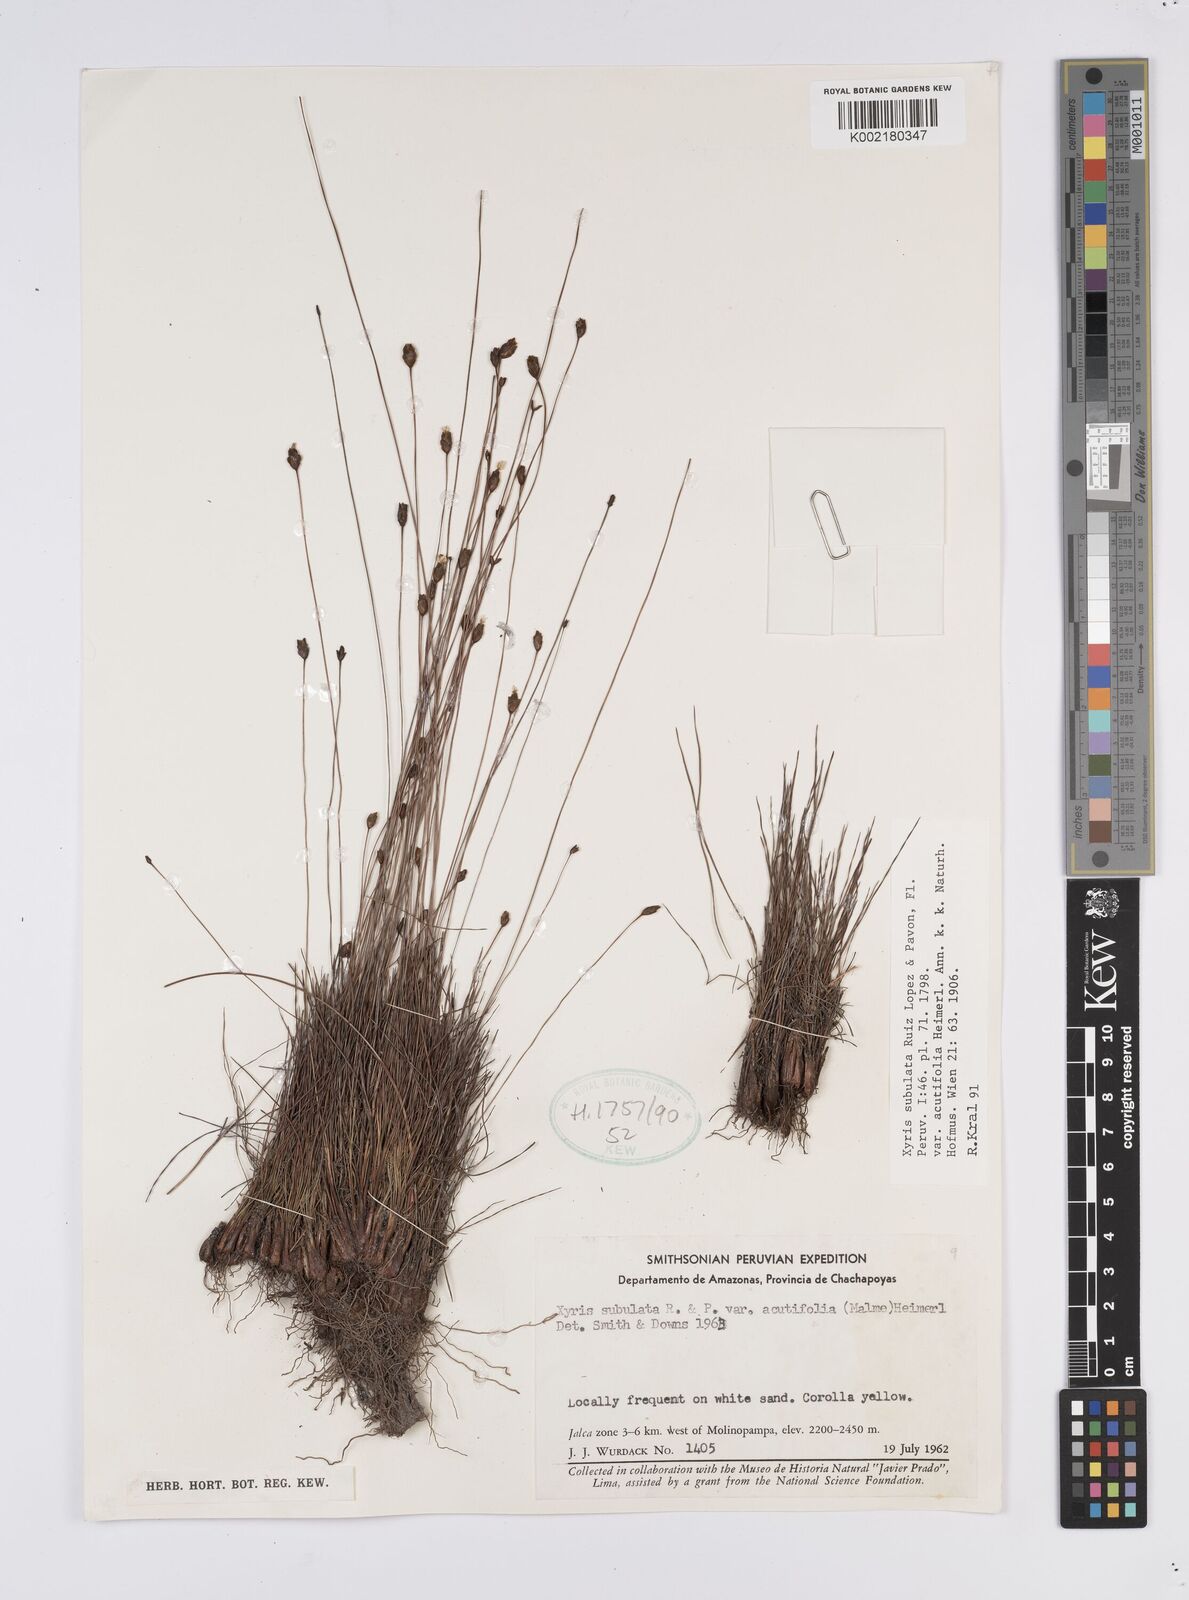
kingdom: Plantae
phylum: Tracheophyta
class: Liliopsida
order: Poales
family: Xyridaceae
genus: Xyris
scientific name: Xyris subulata
